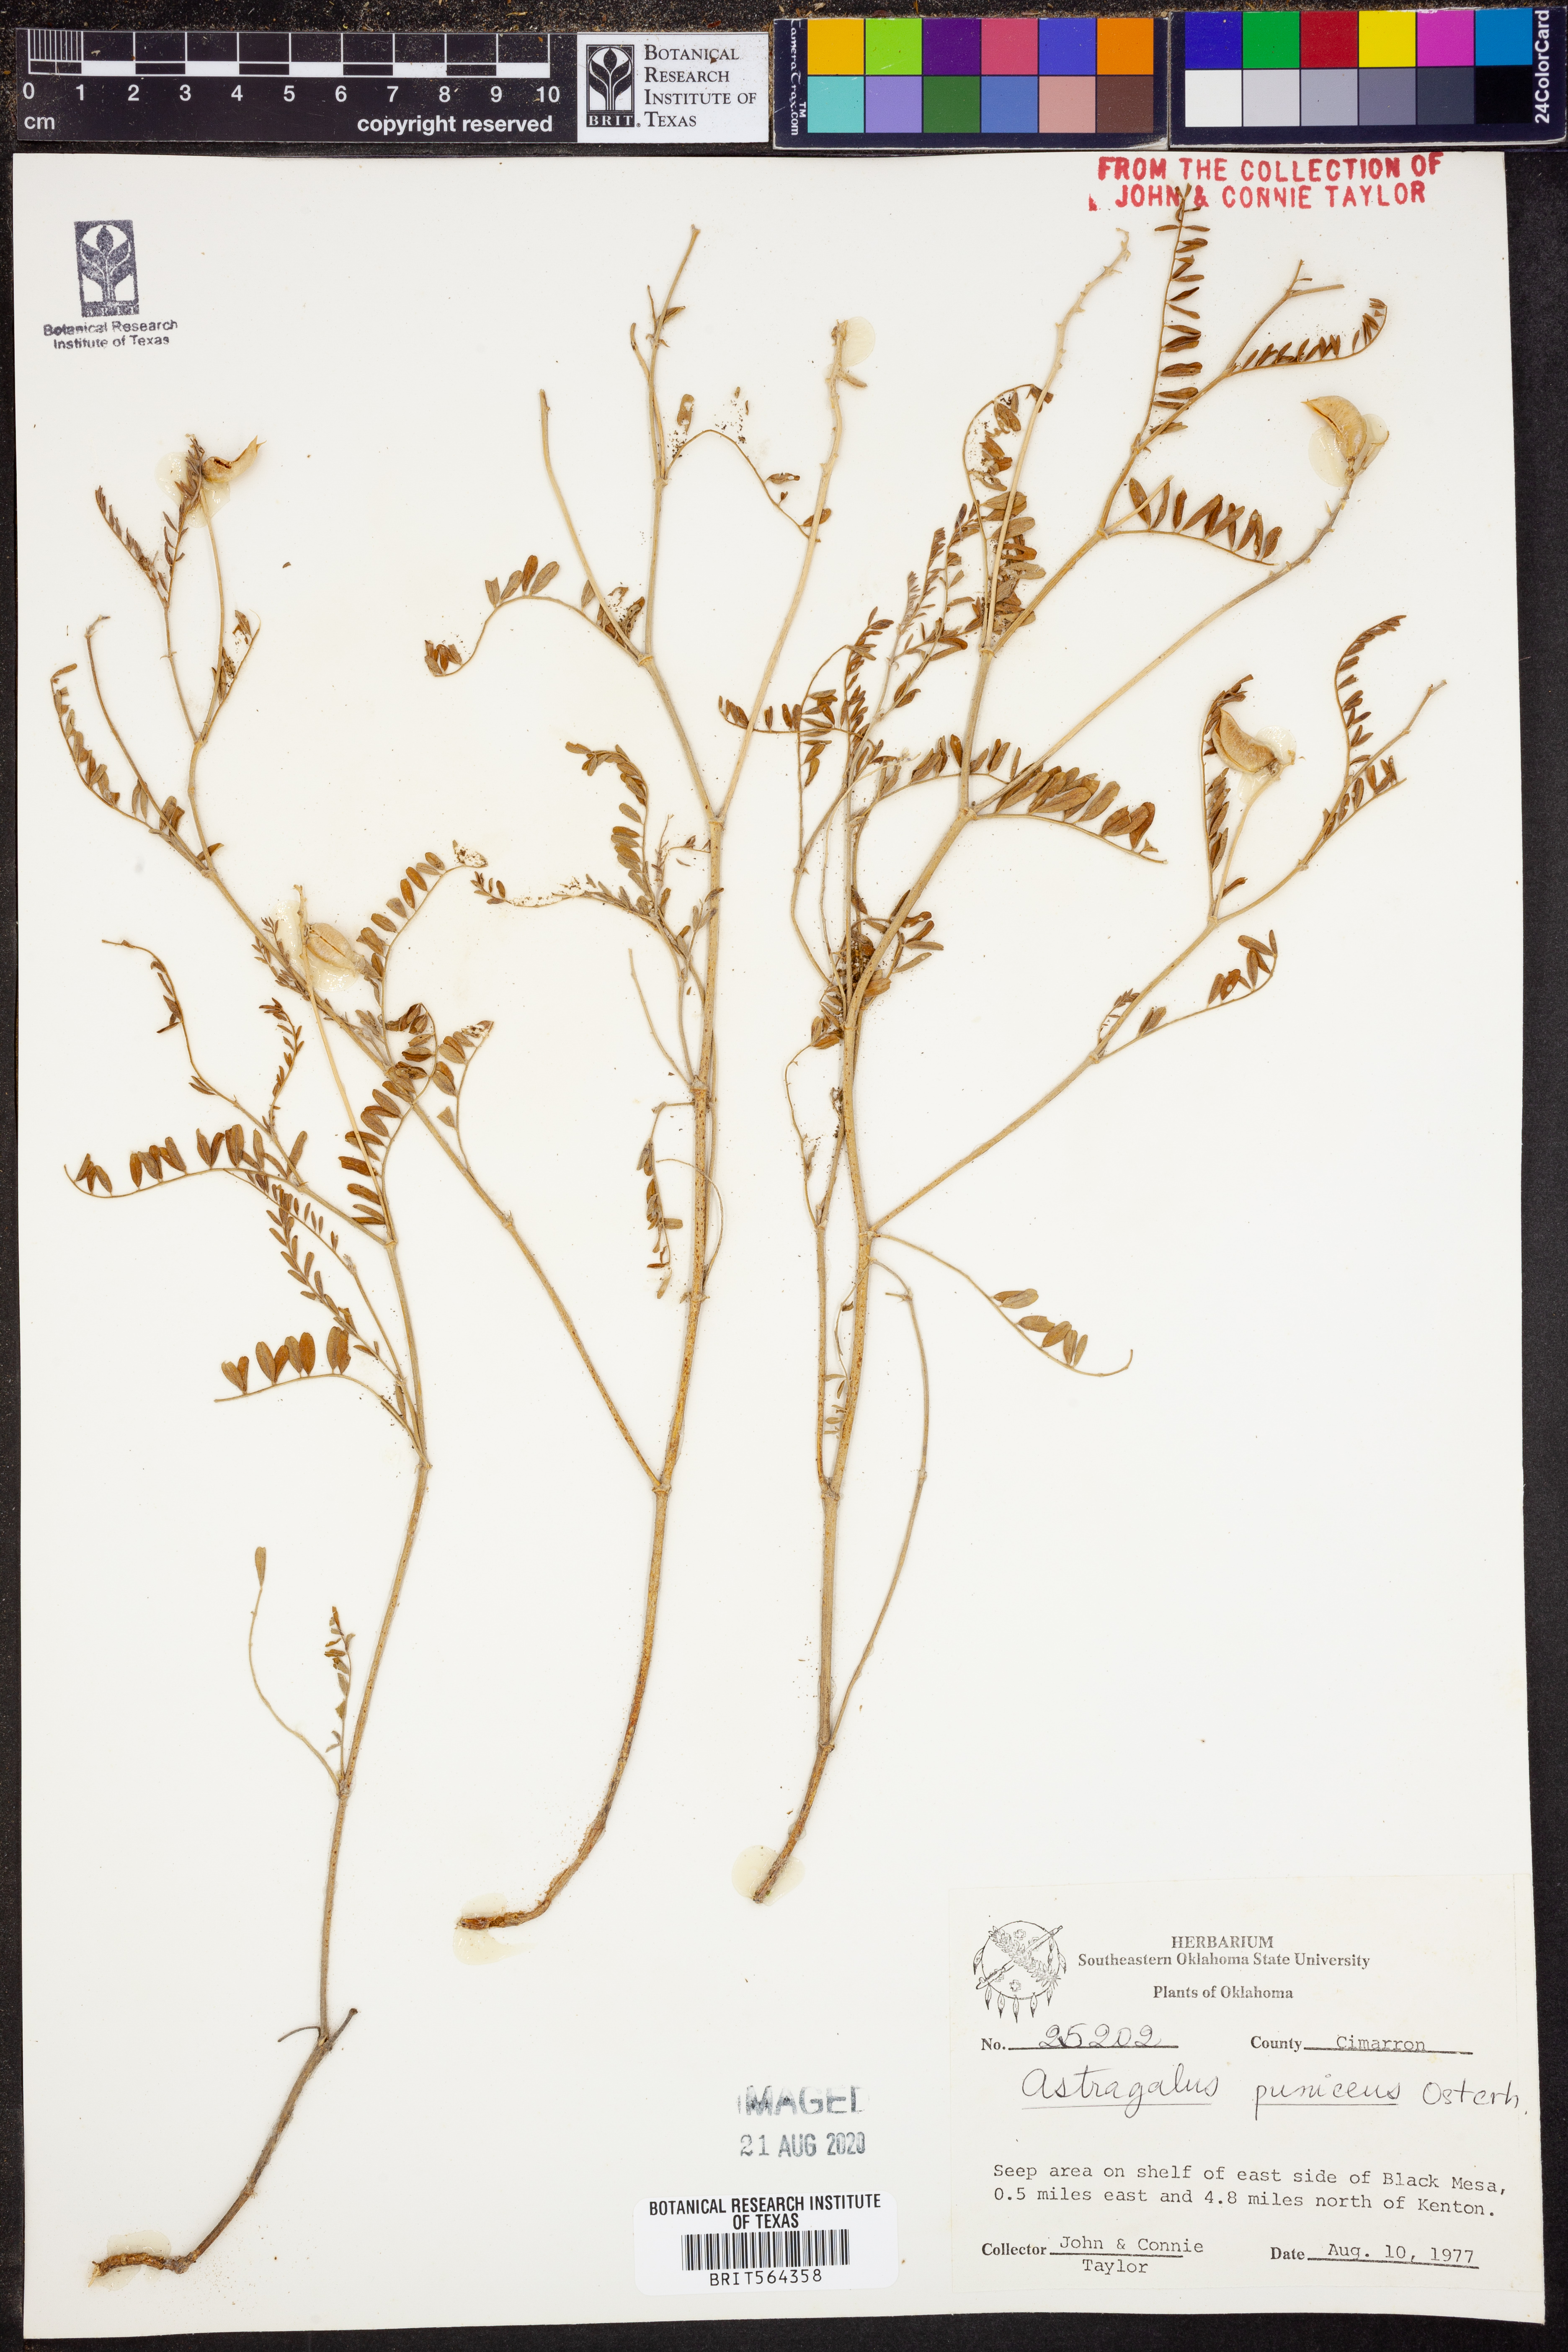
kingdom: Plantae
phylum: Tracheophyta
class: Magnoliopsida
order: Fabales
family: Fabaceae
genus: Astragalus
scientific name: Astragalus puniceus
